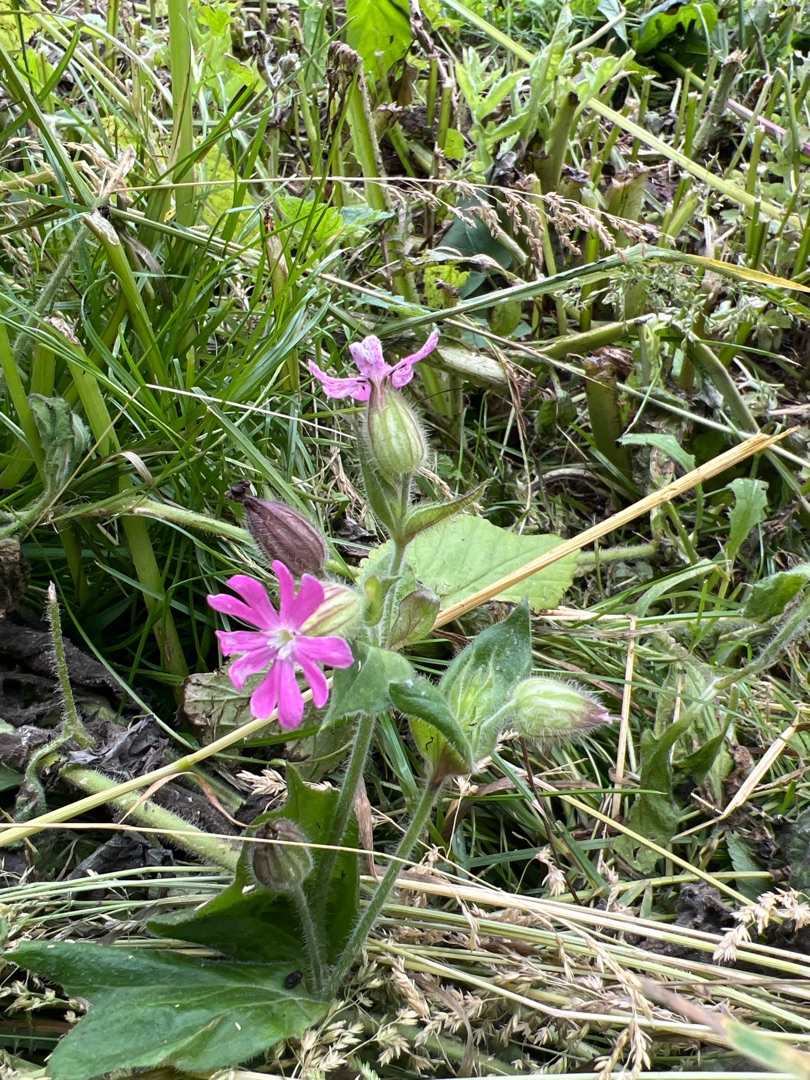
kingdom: Plantae
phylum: Tracheophyta
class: Magnoliopsida
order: Caryophyllales
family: Caryophyllaceae
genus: Silene
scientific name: Silene dioica
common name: Dagpragtstjerne
